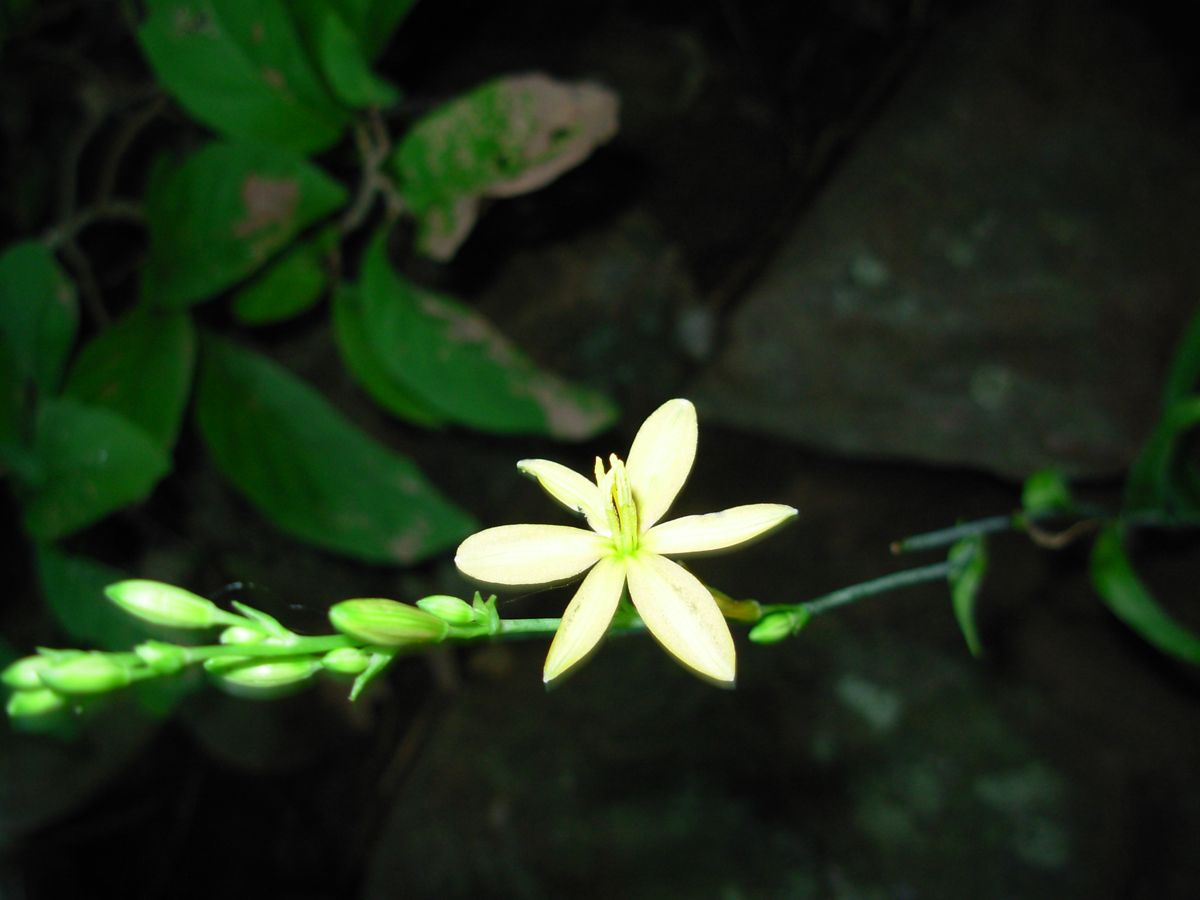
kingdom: Plantae
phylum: Tracheophyta
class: Liliopsida
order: Asparagales
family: Asparagaceae
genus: Echeandia
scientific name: Echeandia skinneri
